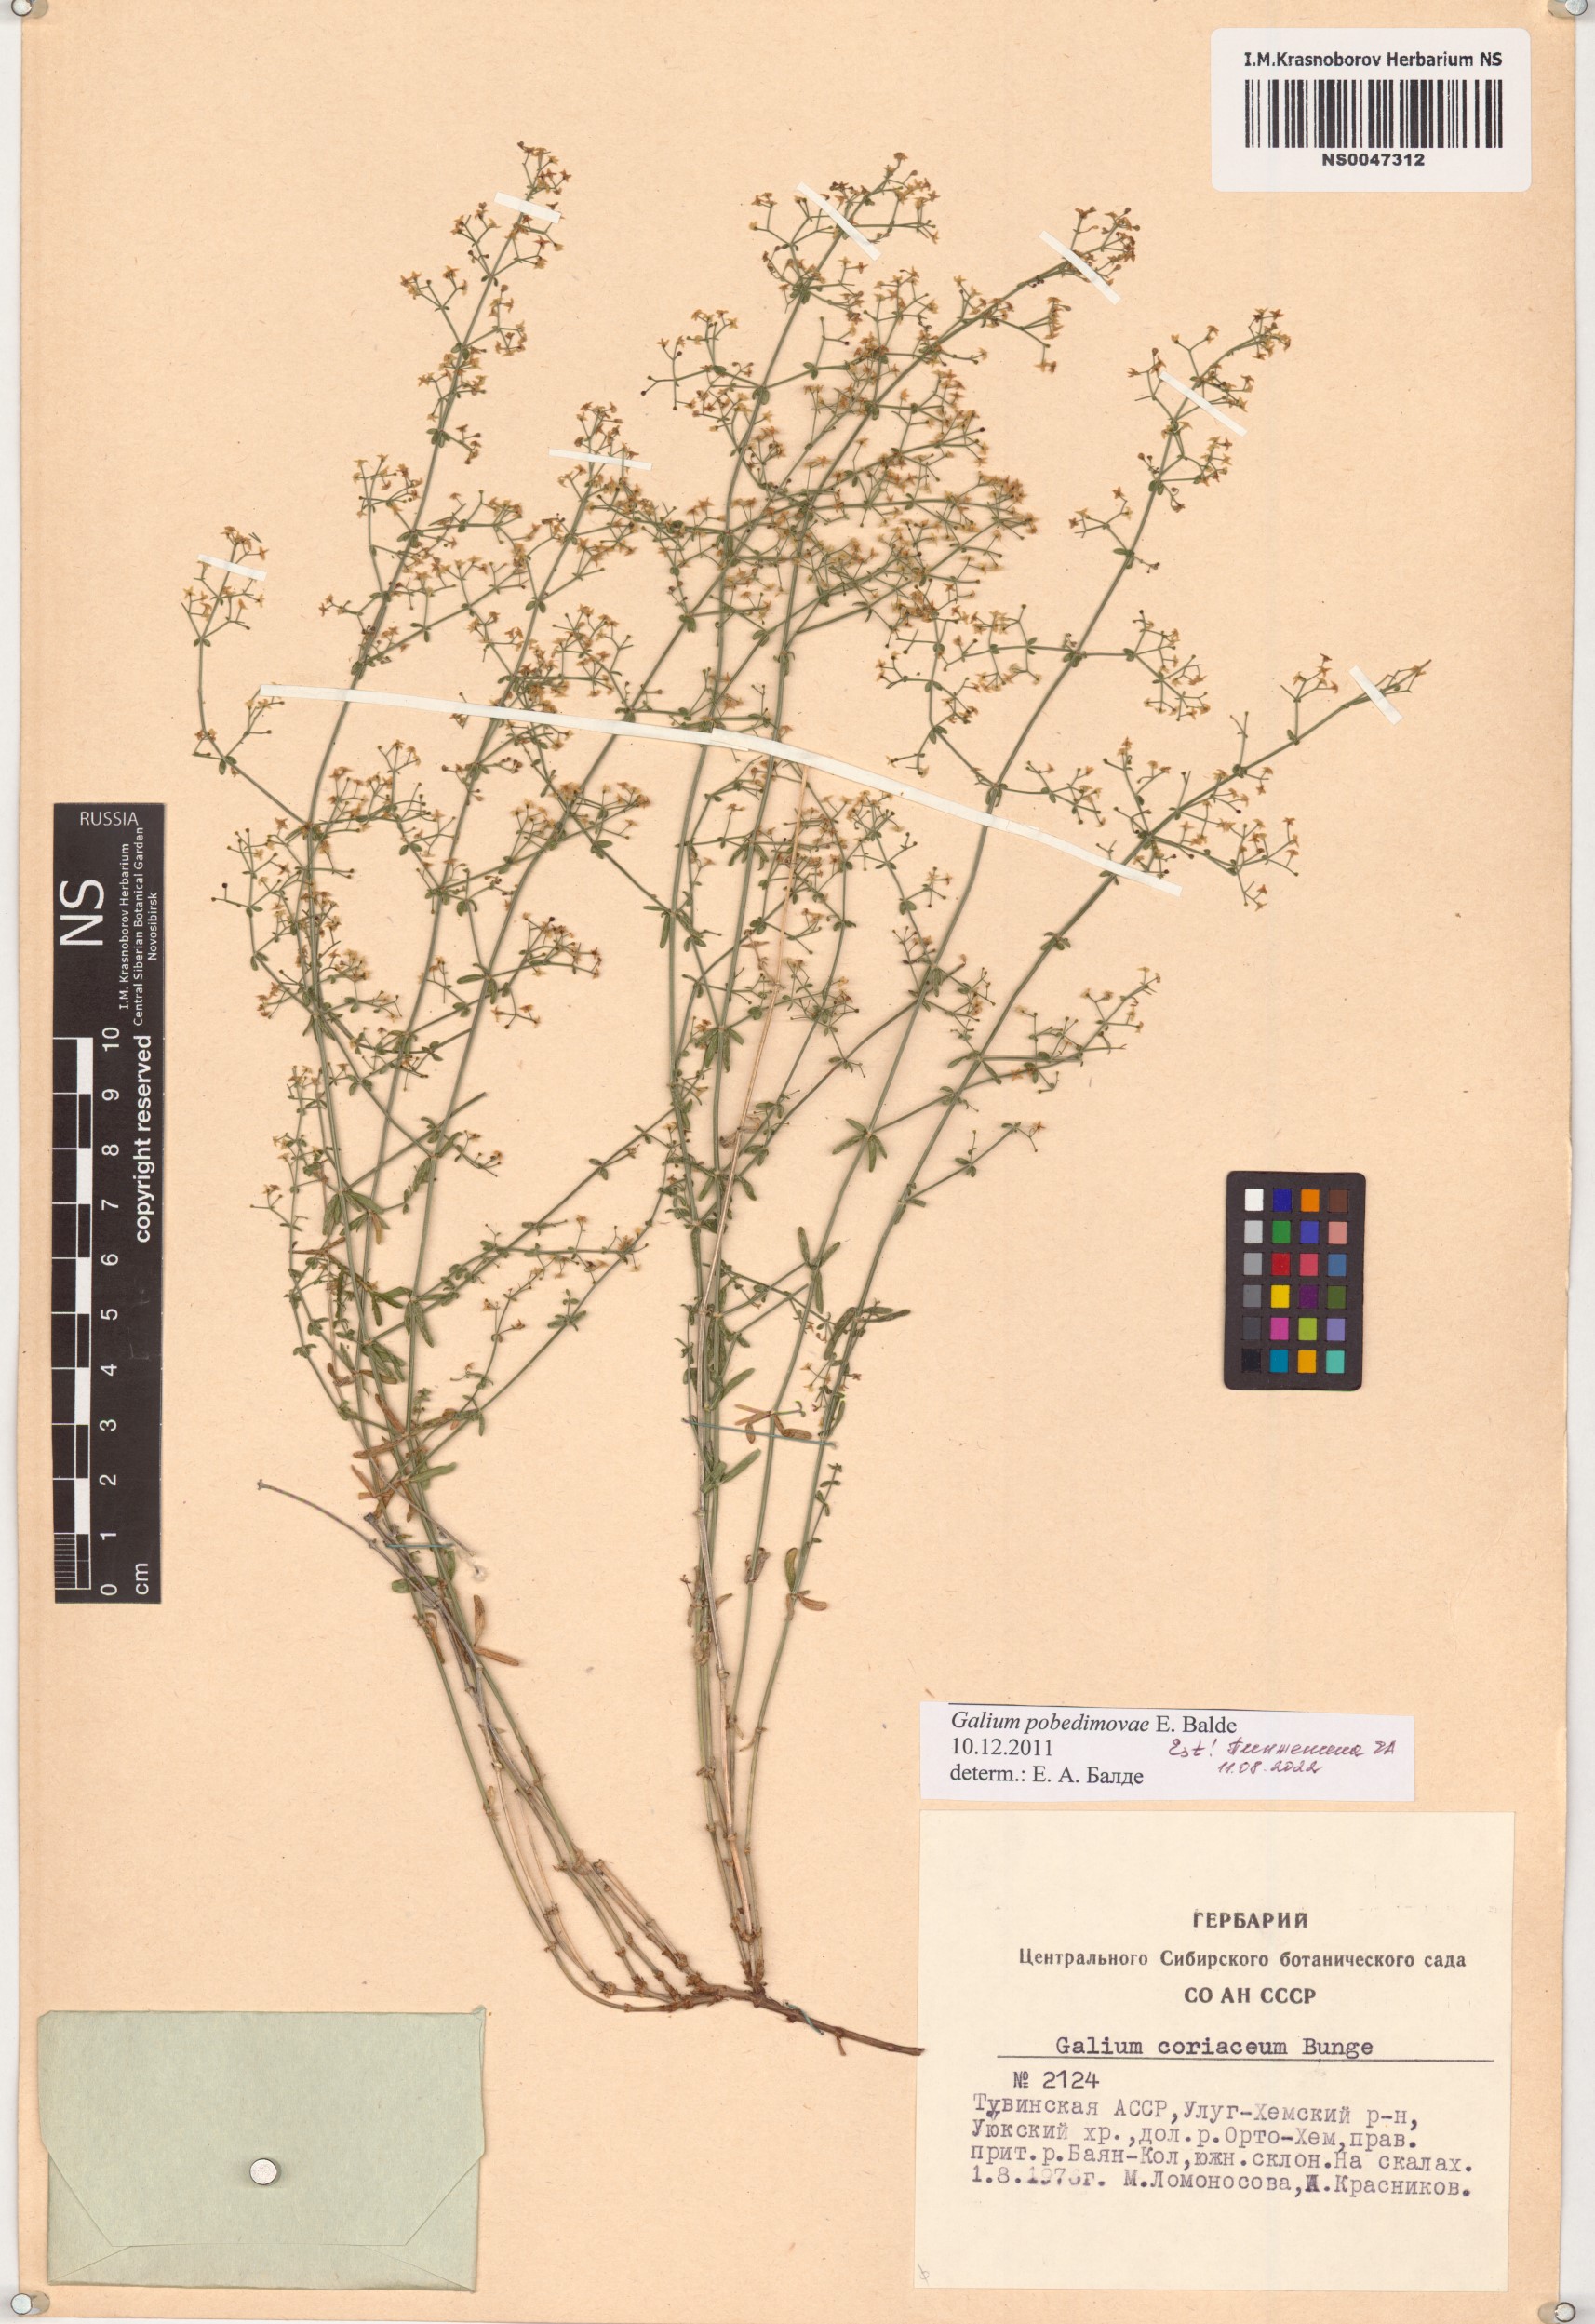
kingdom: Plantae
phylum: Tracheophyta
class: Magnoliopsida
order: Gentianales
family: Rubiaceae
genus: Galium
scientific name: Galium pobedimovae
